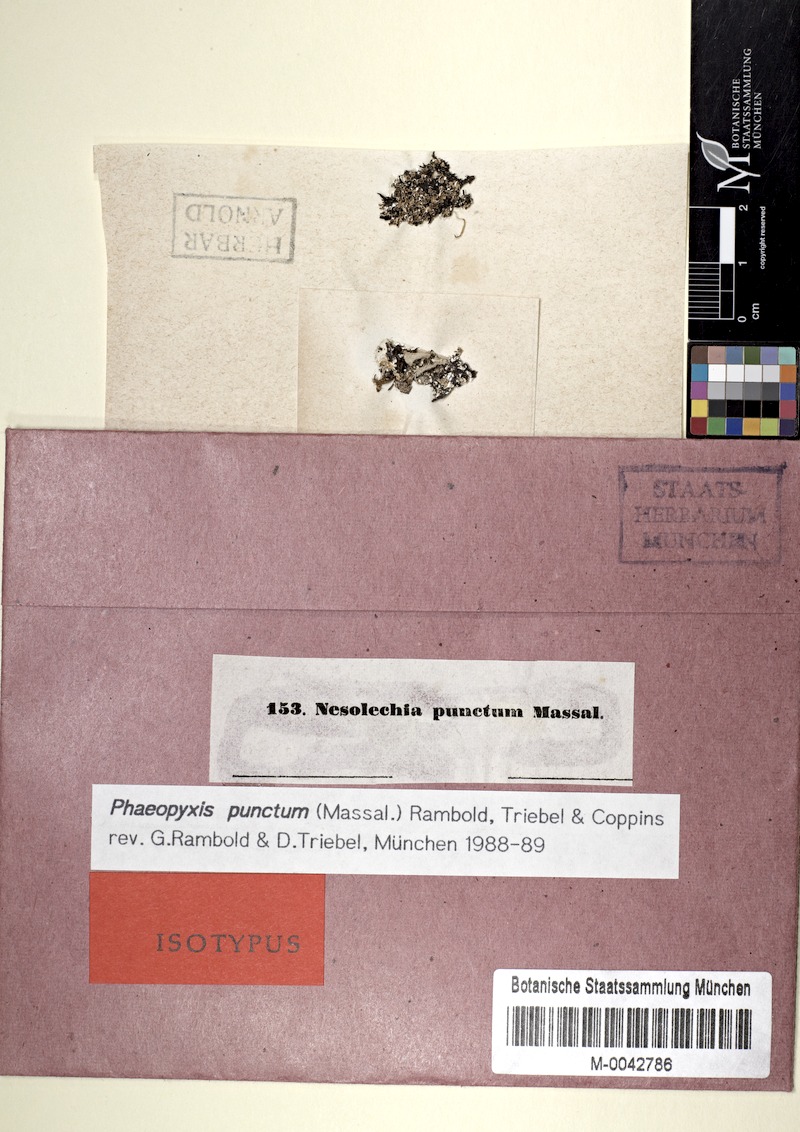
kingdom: Fungi
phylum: Ascomycota
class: Lecanoromycetes
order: Lecanorales
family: Cladoniaceae
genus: Cladonia
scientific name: Cladonia
